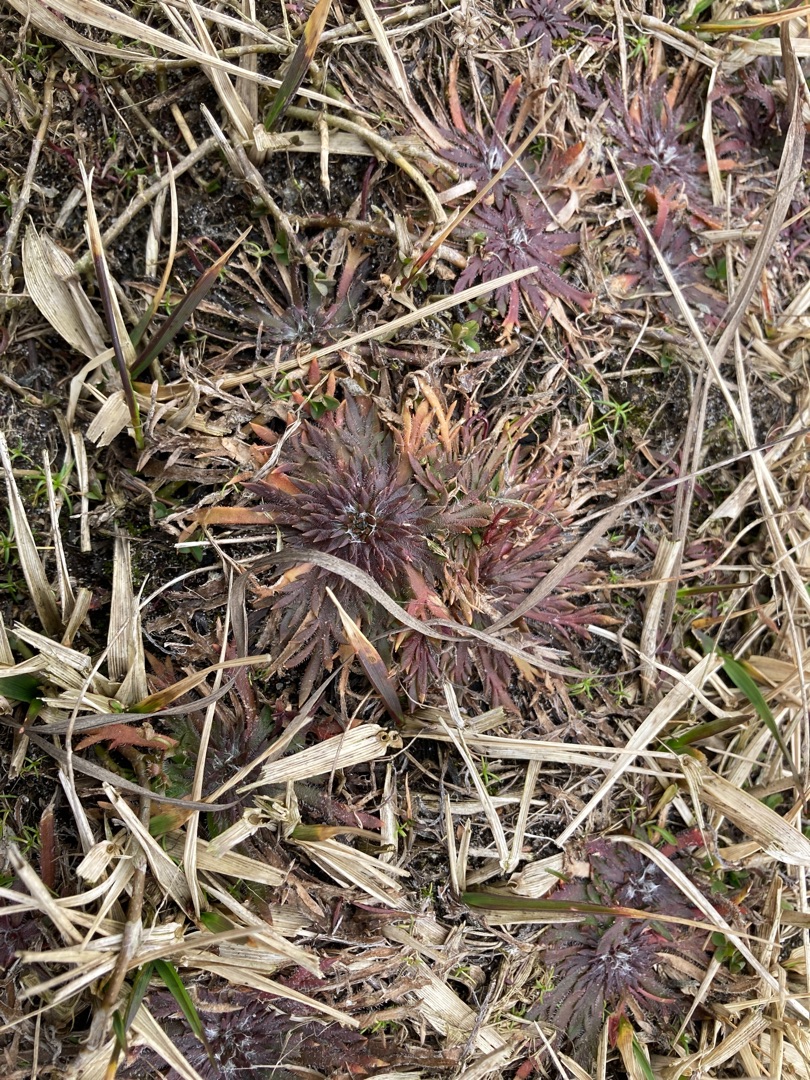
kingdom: Plantae
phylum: Tracheophyta
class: Magnoliopsida
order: Lamiales
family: Plantaginaceae
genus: Plantago
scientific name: Plantago coronopus
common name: Fliget vejbred
